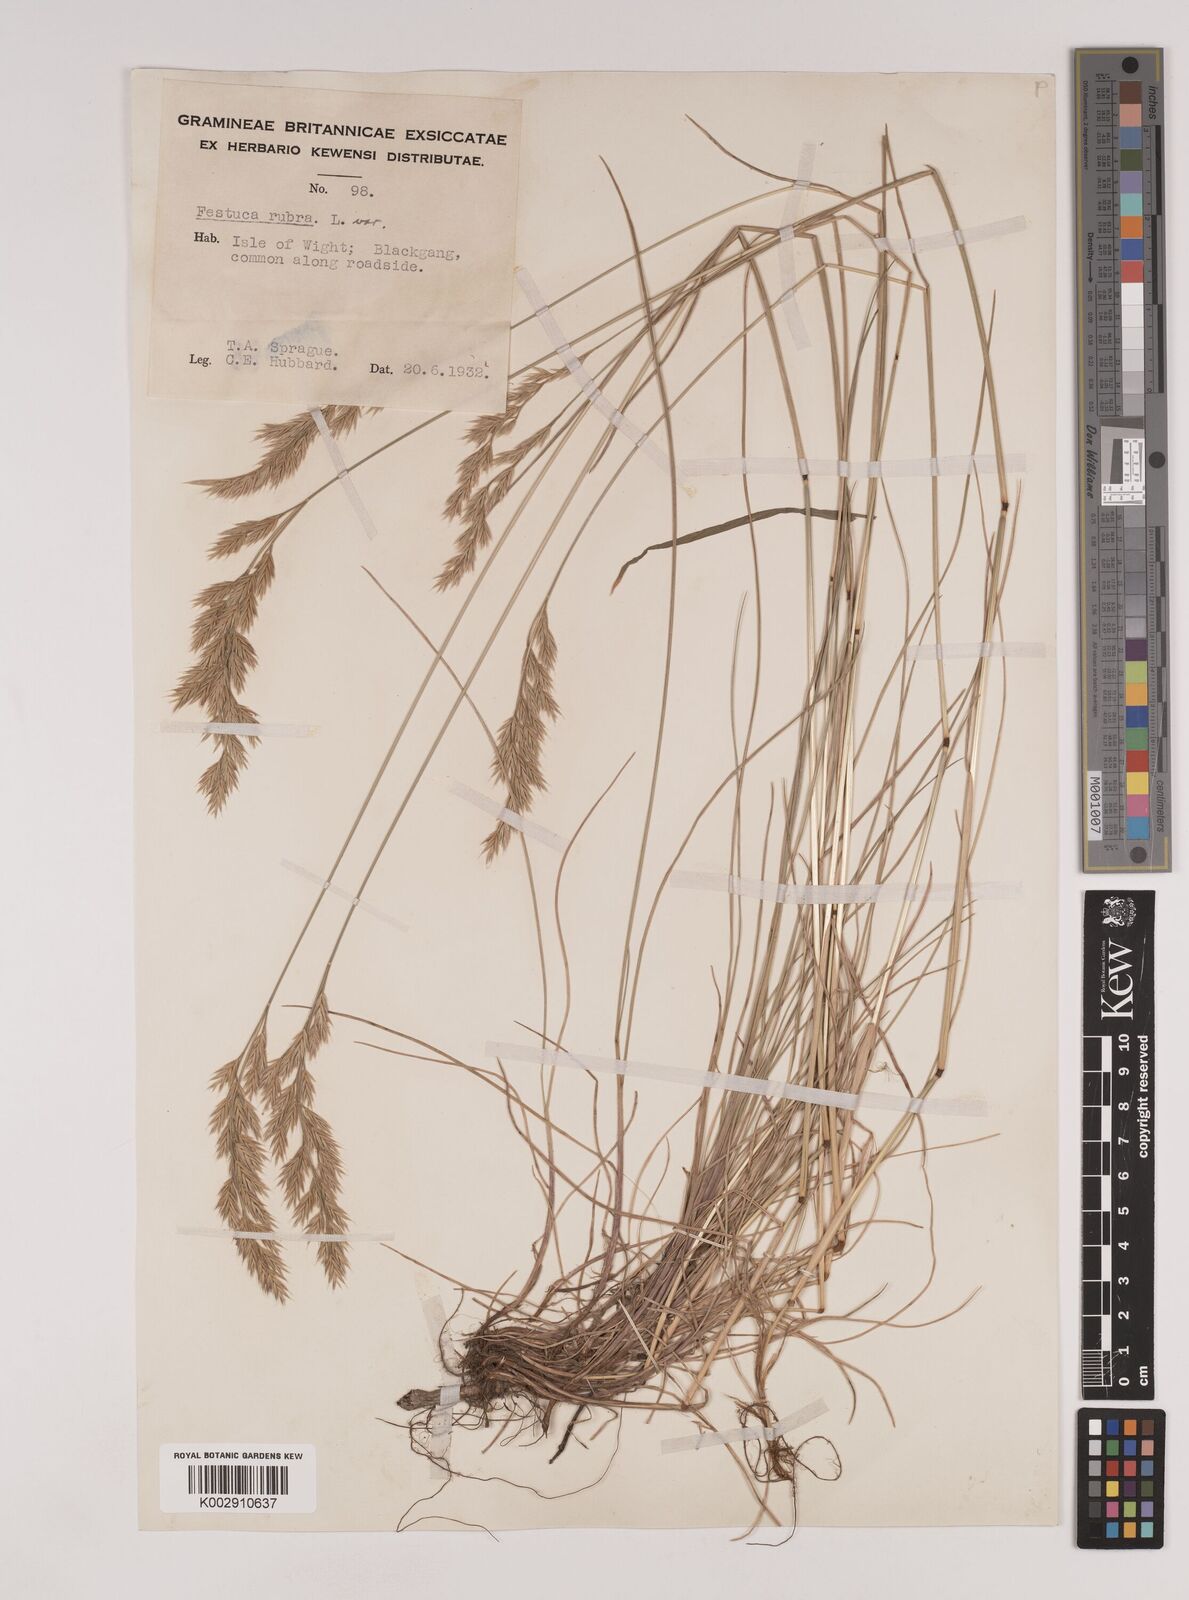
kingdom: Plantae
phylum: Tracheophyta
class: Liliopsida
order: Poales
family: Poaceae
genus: Festuca
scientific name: Festuca rubra
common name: Red fescue
